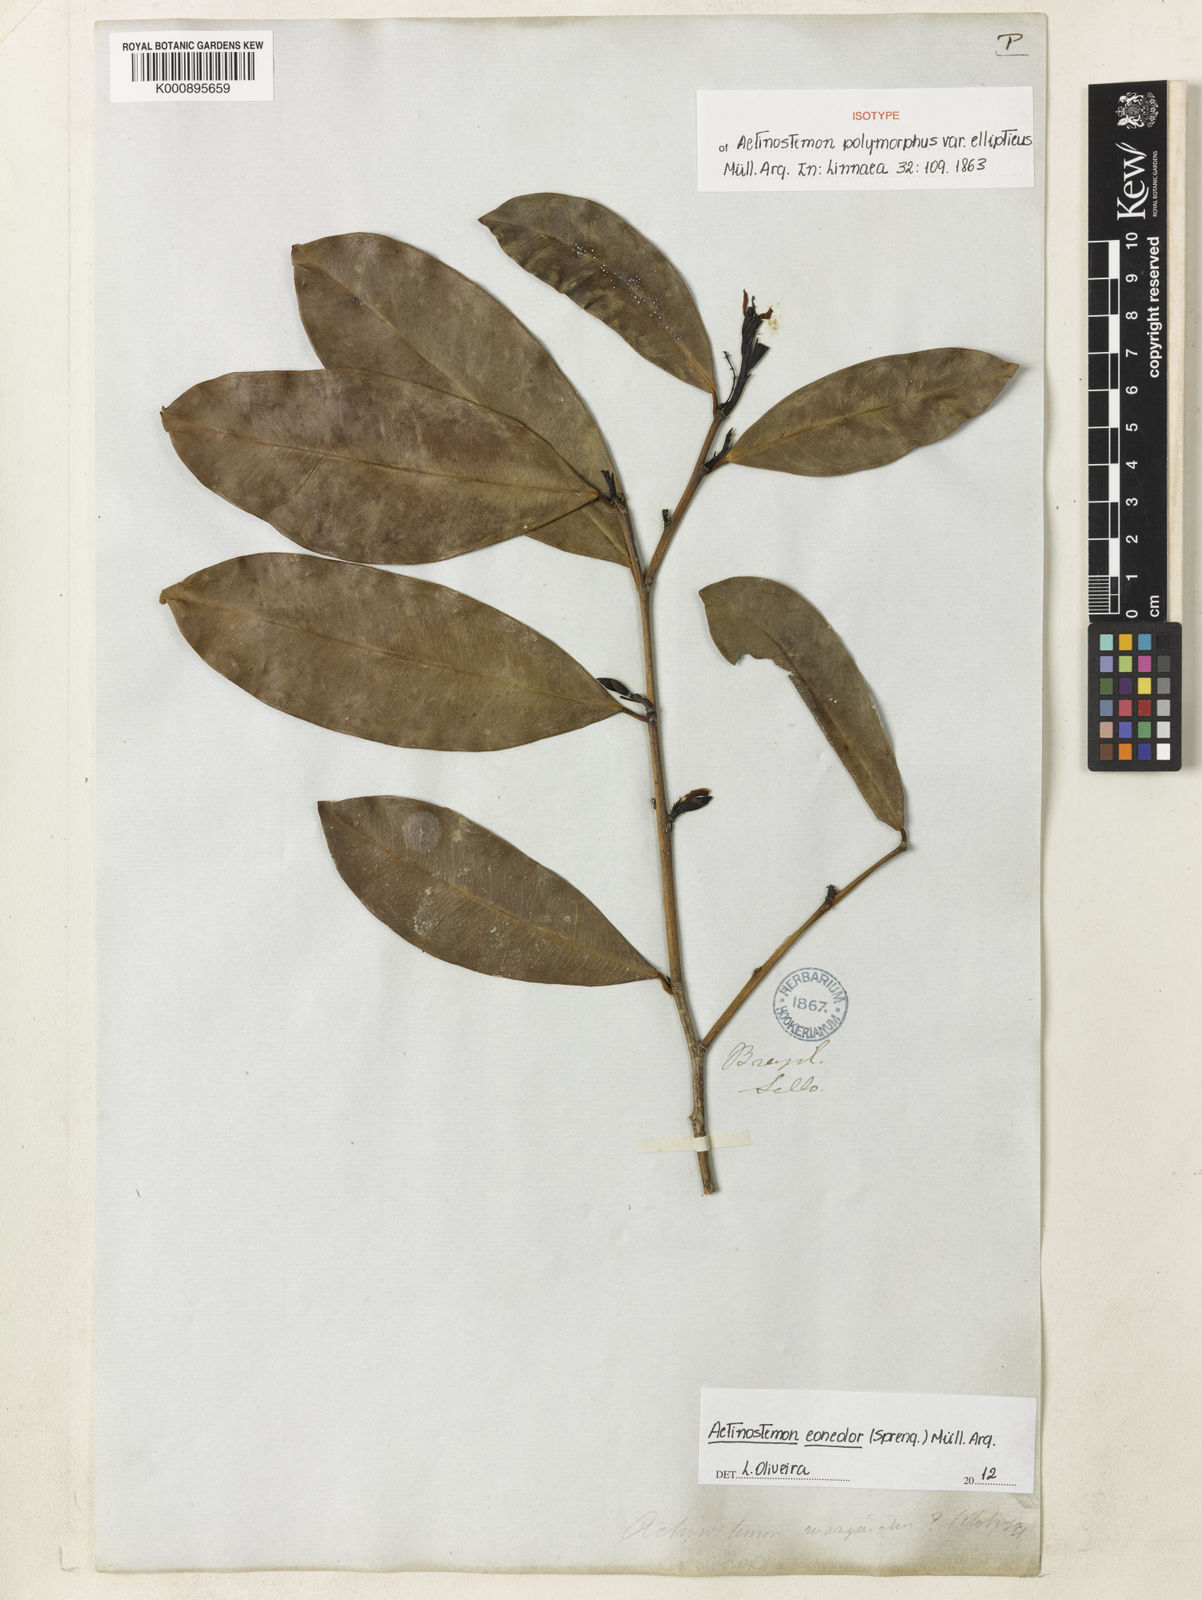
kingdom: Plantae
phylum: Tracheophyta
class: Magnoliopsida
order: Malpighiales
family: Euphorbiaceae
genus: Actinostemon
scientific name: Actinostemon
